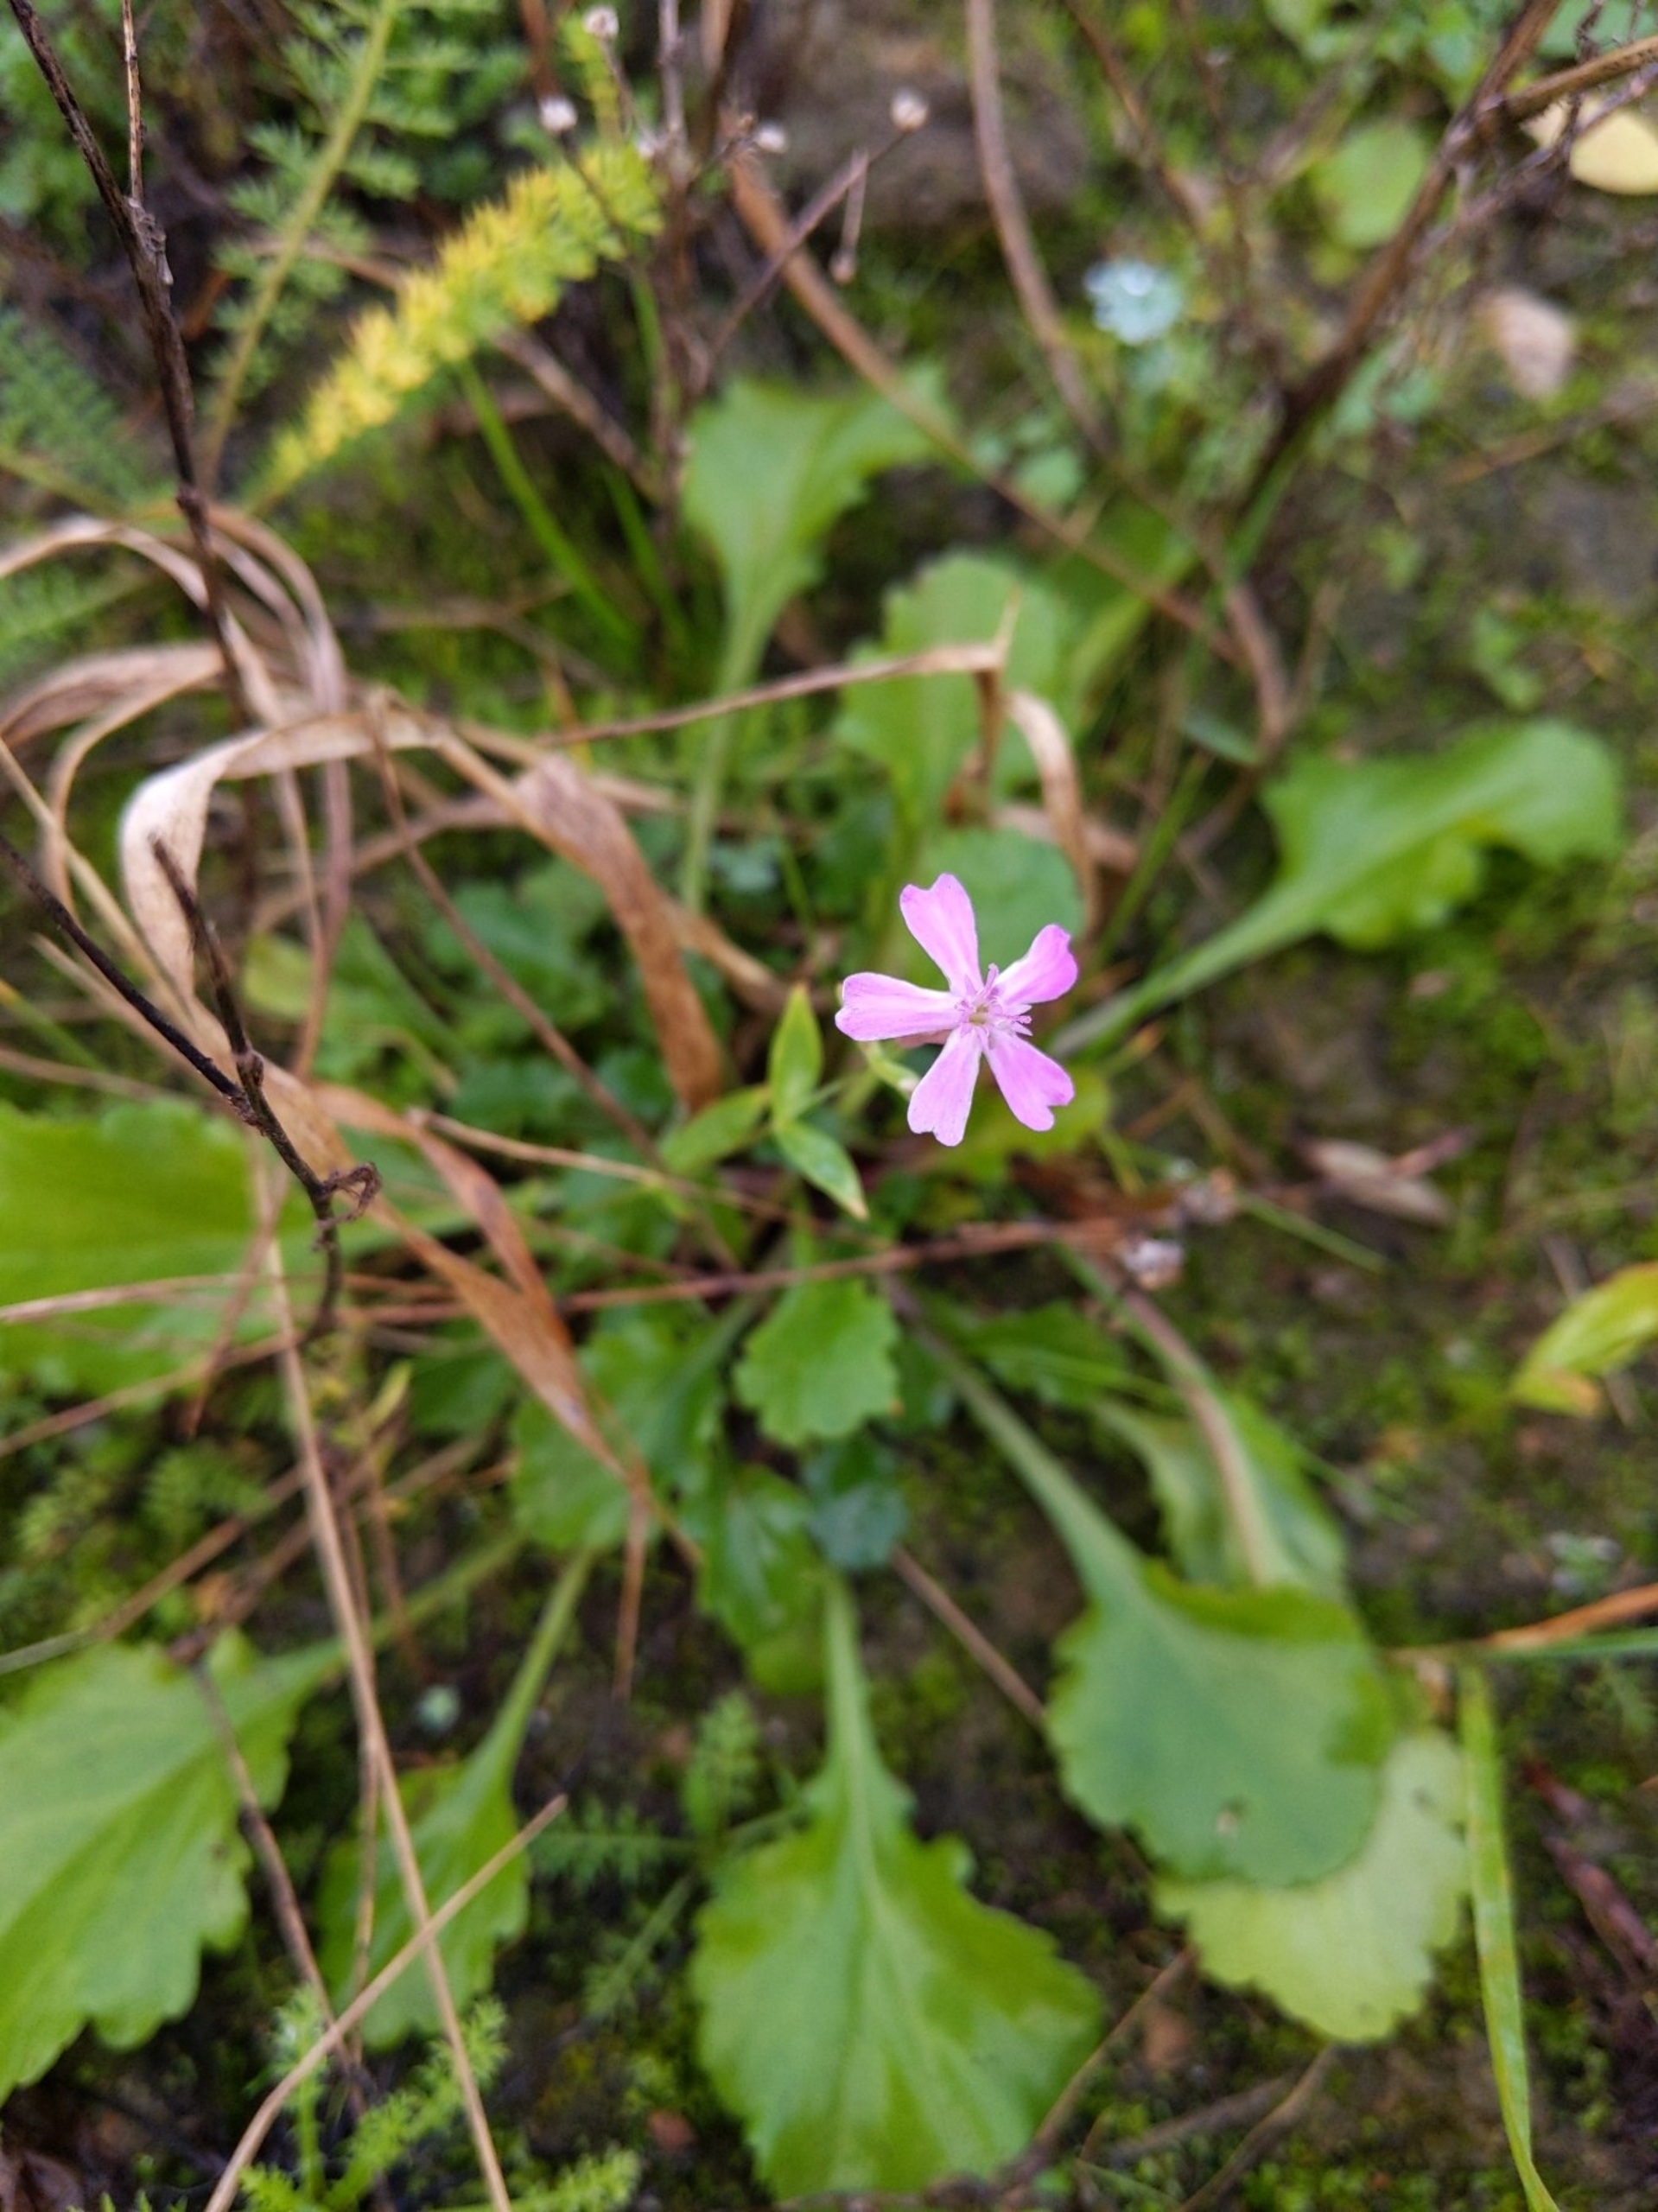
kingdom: Plantae
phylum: Tracheophyta
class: Magnoliopsida
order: Caryophyllales
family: Caryophyllaceae
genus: Atocion
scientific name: Atocion armeria
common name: Knippe-limurt
